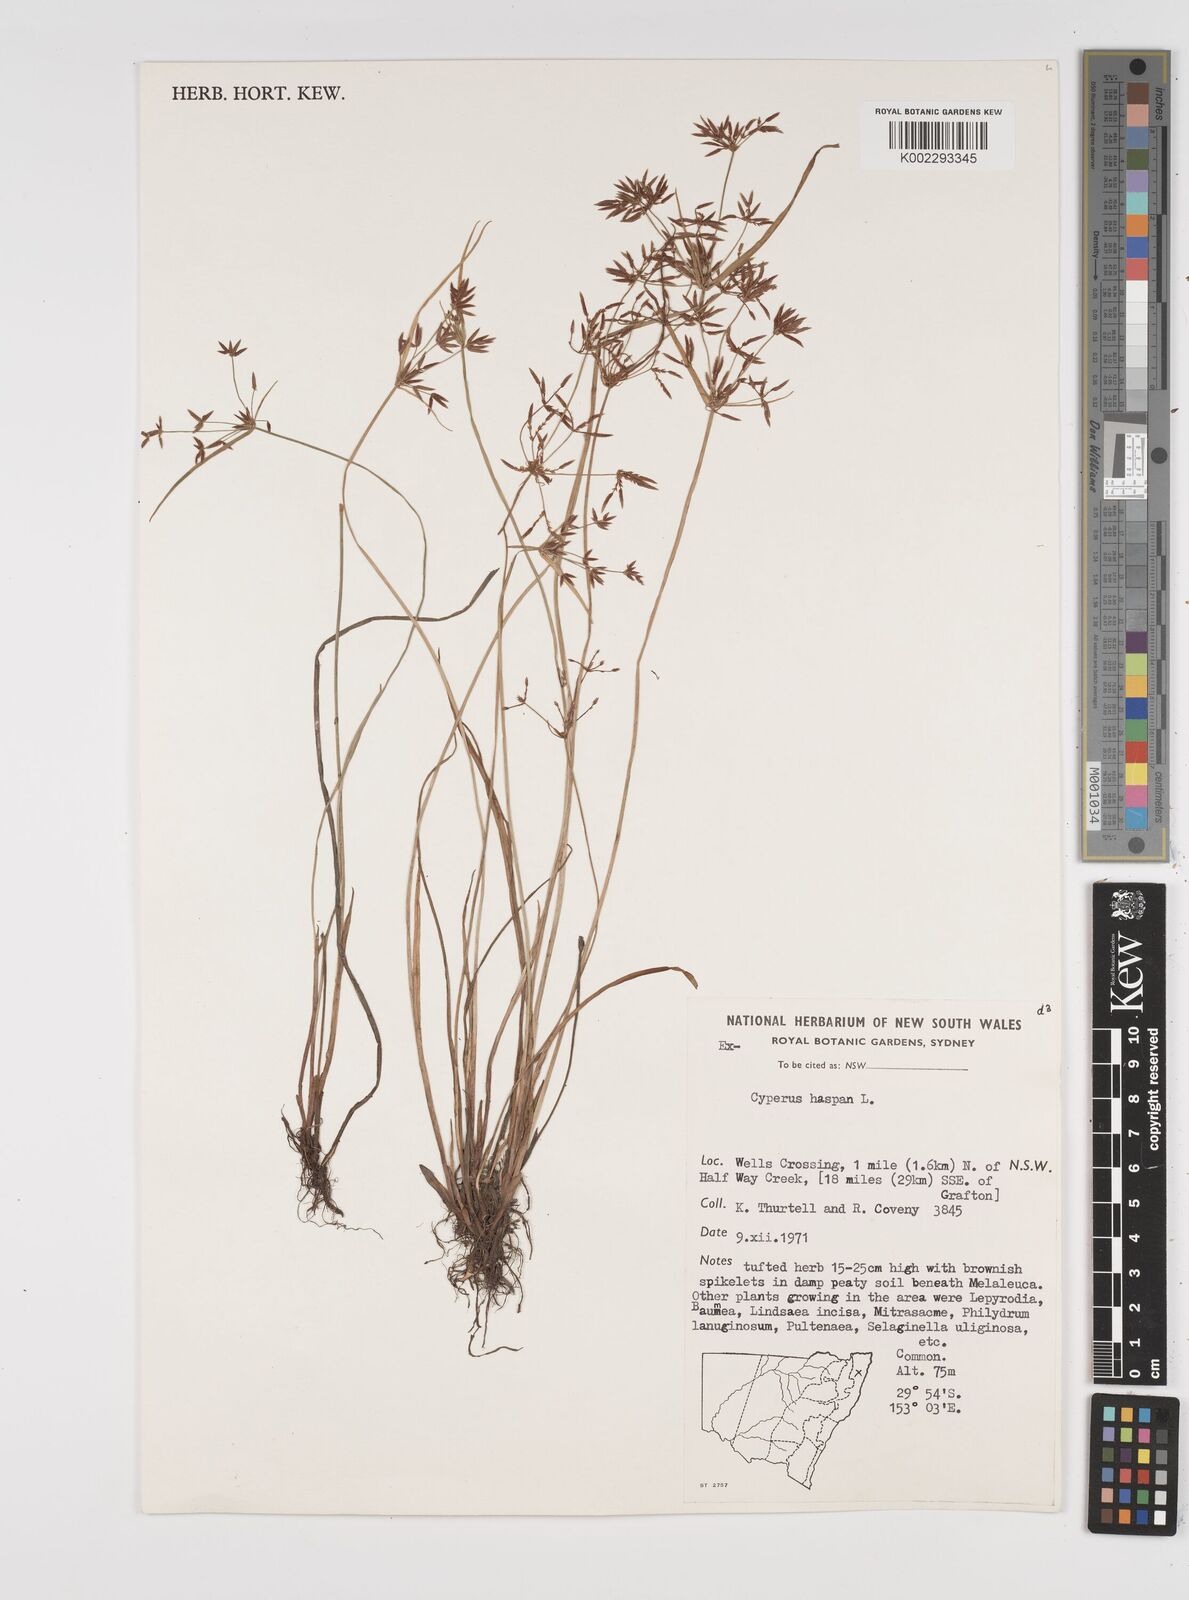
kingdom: Plantae
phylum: Tracheophyta
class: Liliopsida
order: Poales
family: Cyperaceae
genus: Cyperus
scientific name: Cyperus haspan
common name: Haspan flatsedge
